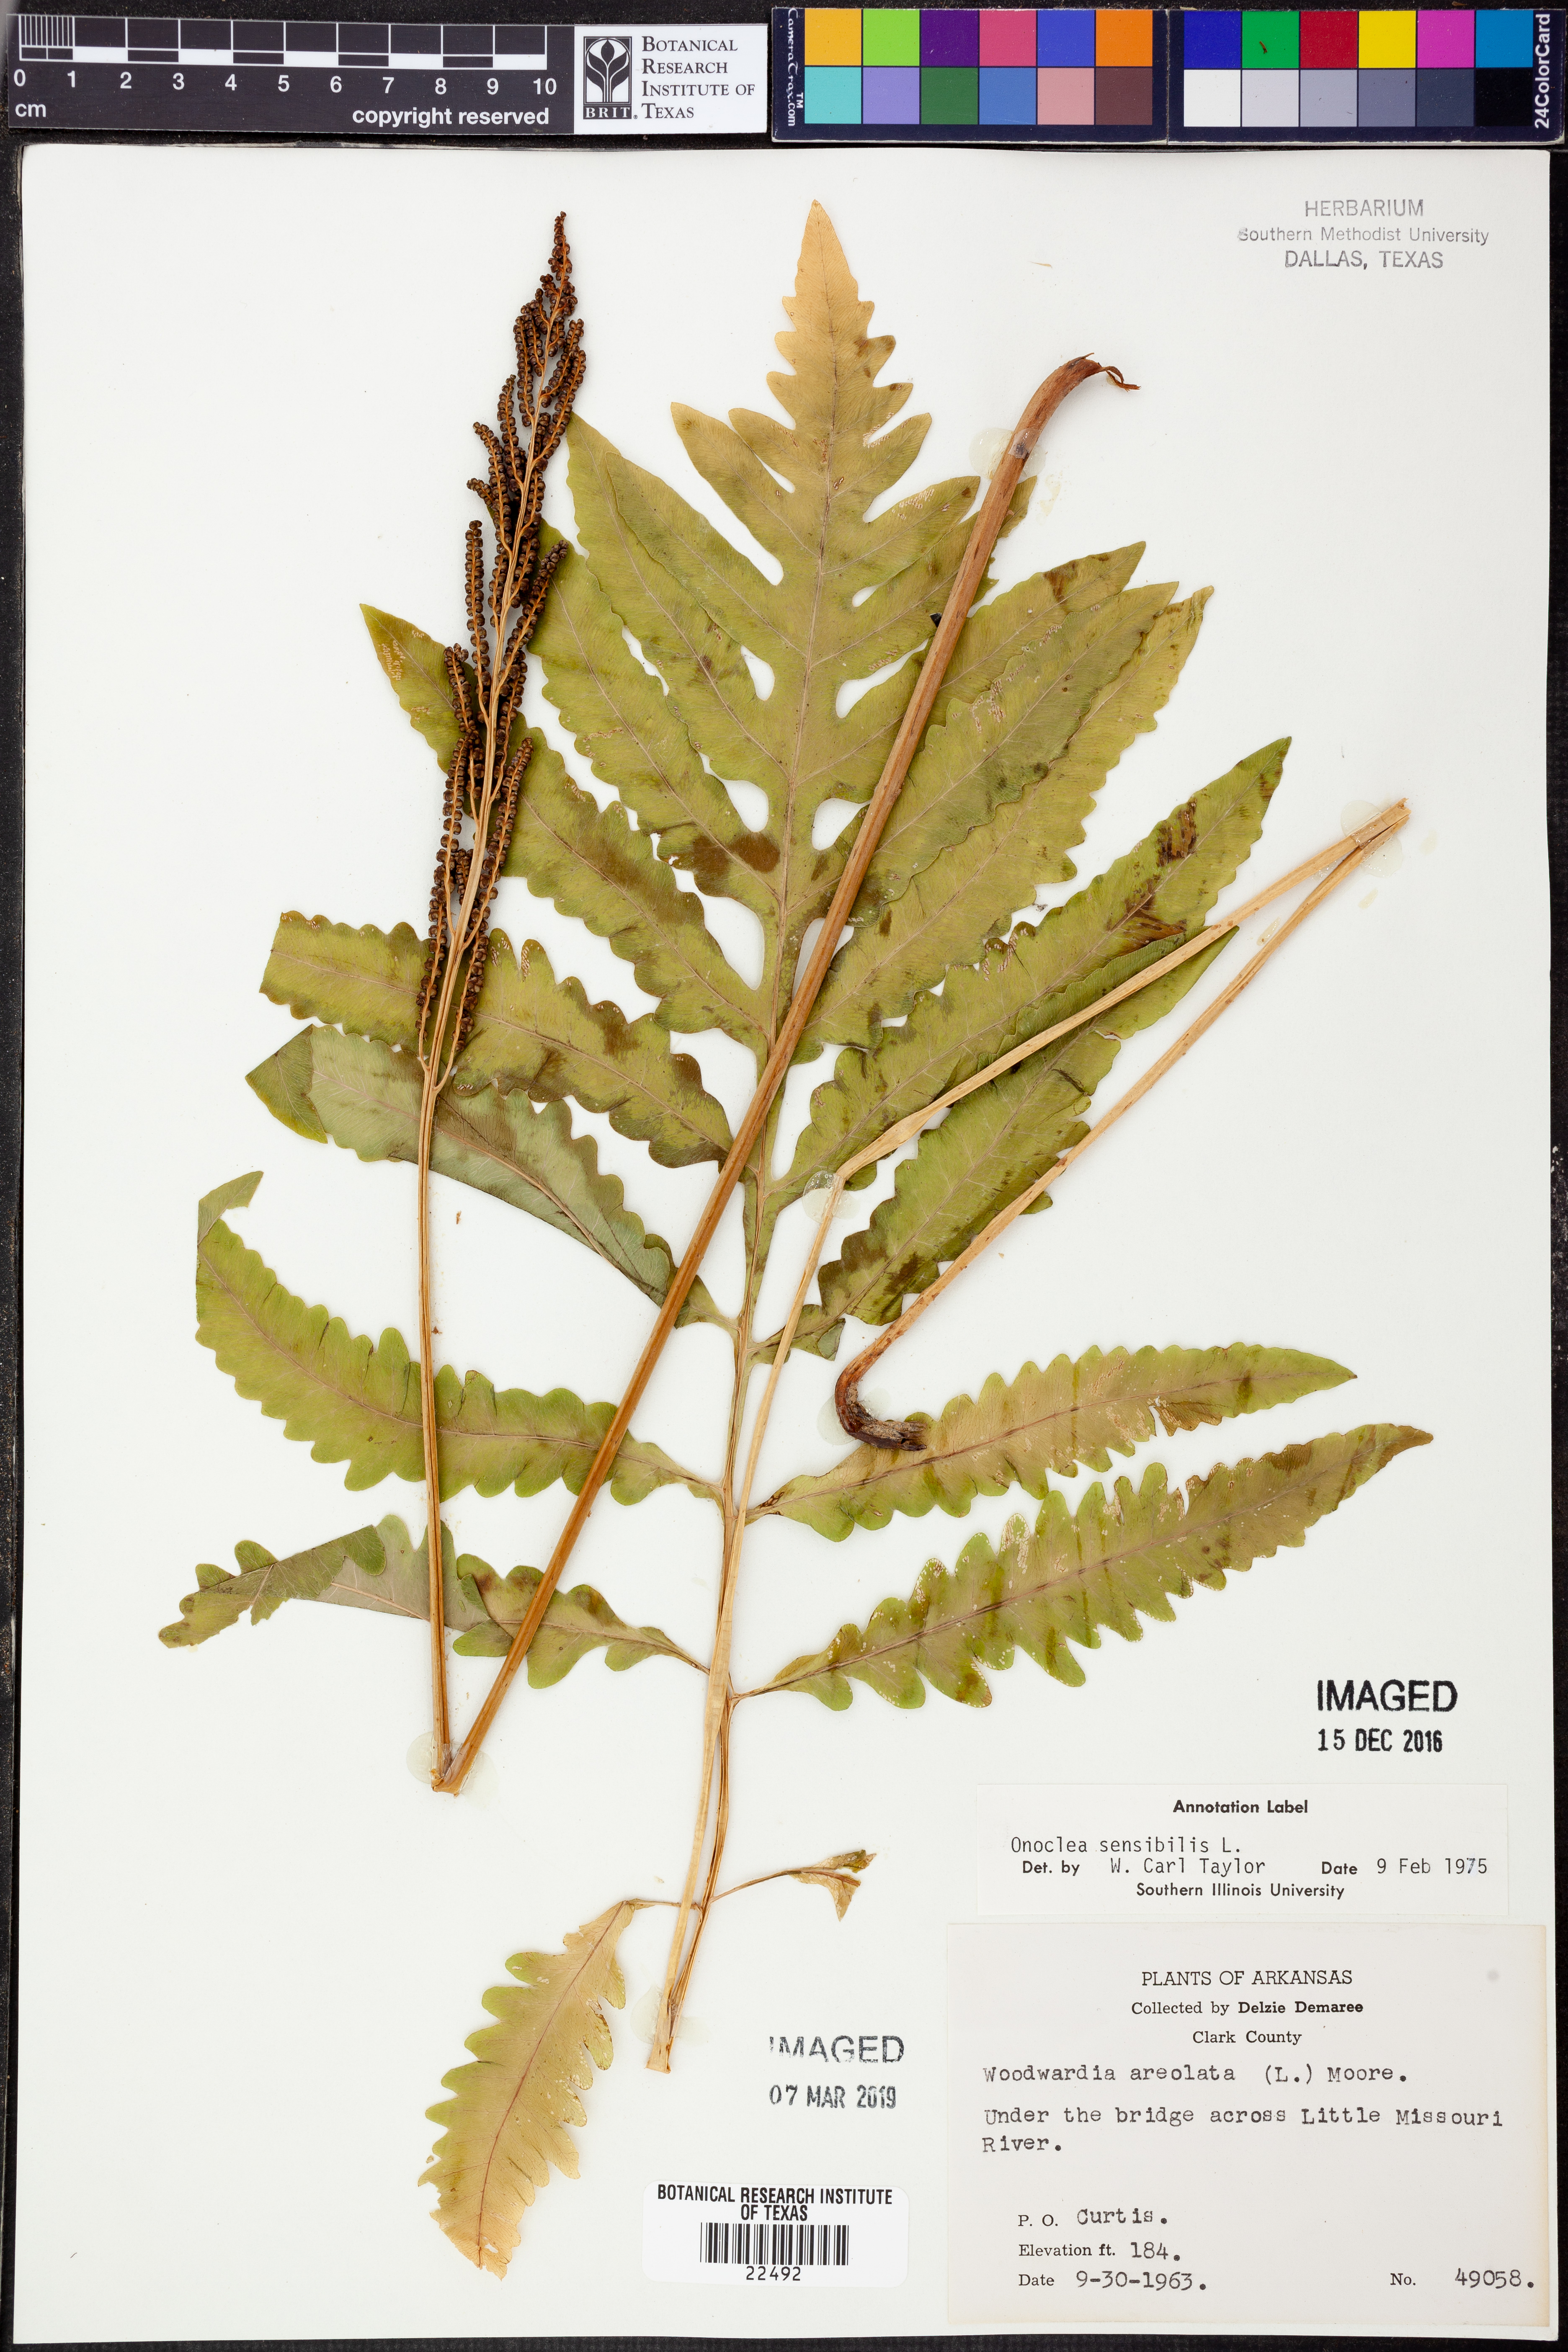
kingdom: Plantae
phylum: Tracheophyta
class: Polypodiopsida
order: Polypodiales
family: Onocleaceae
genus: Onoclea
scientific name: Onoclea sensibilis
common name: Sensitive fern
